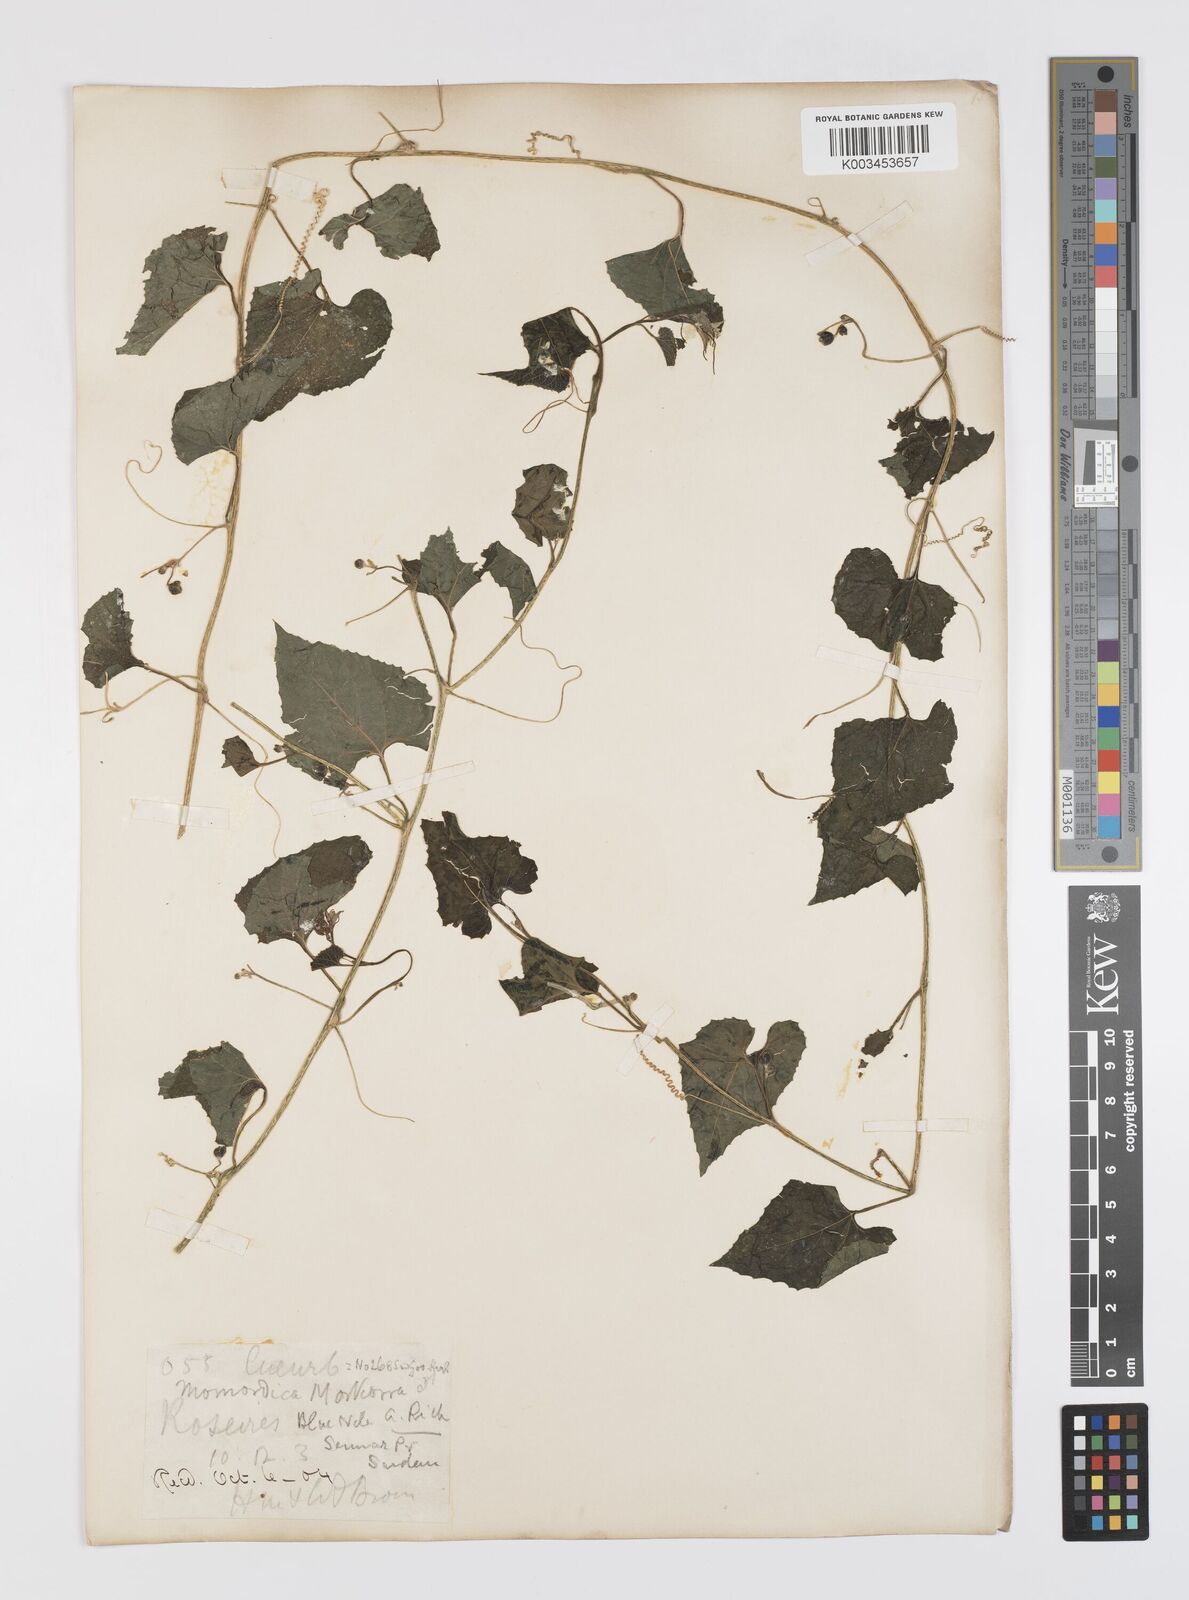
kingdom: Plantae
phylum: Tracheophyta
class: Magnoliopsida
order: Cucurbitales
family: Cucurbitaceae
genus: Momordica
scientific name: Momordica foetida
